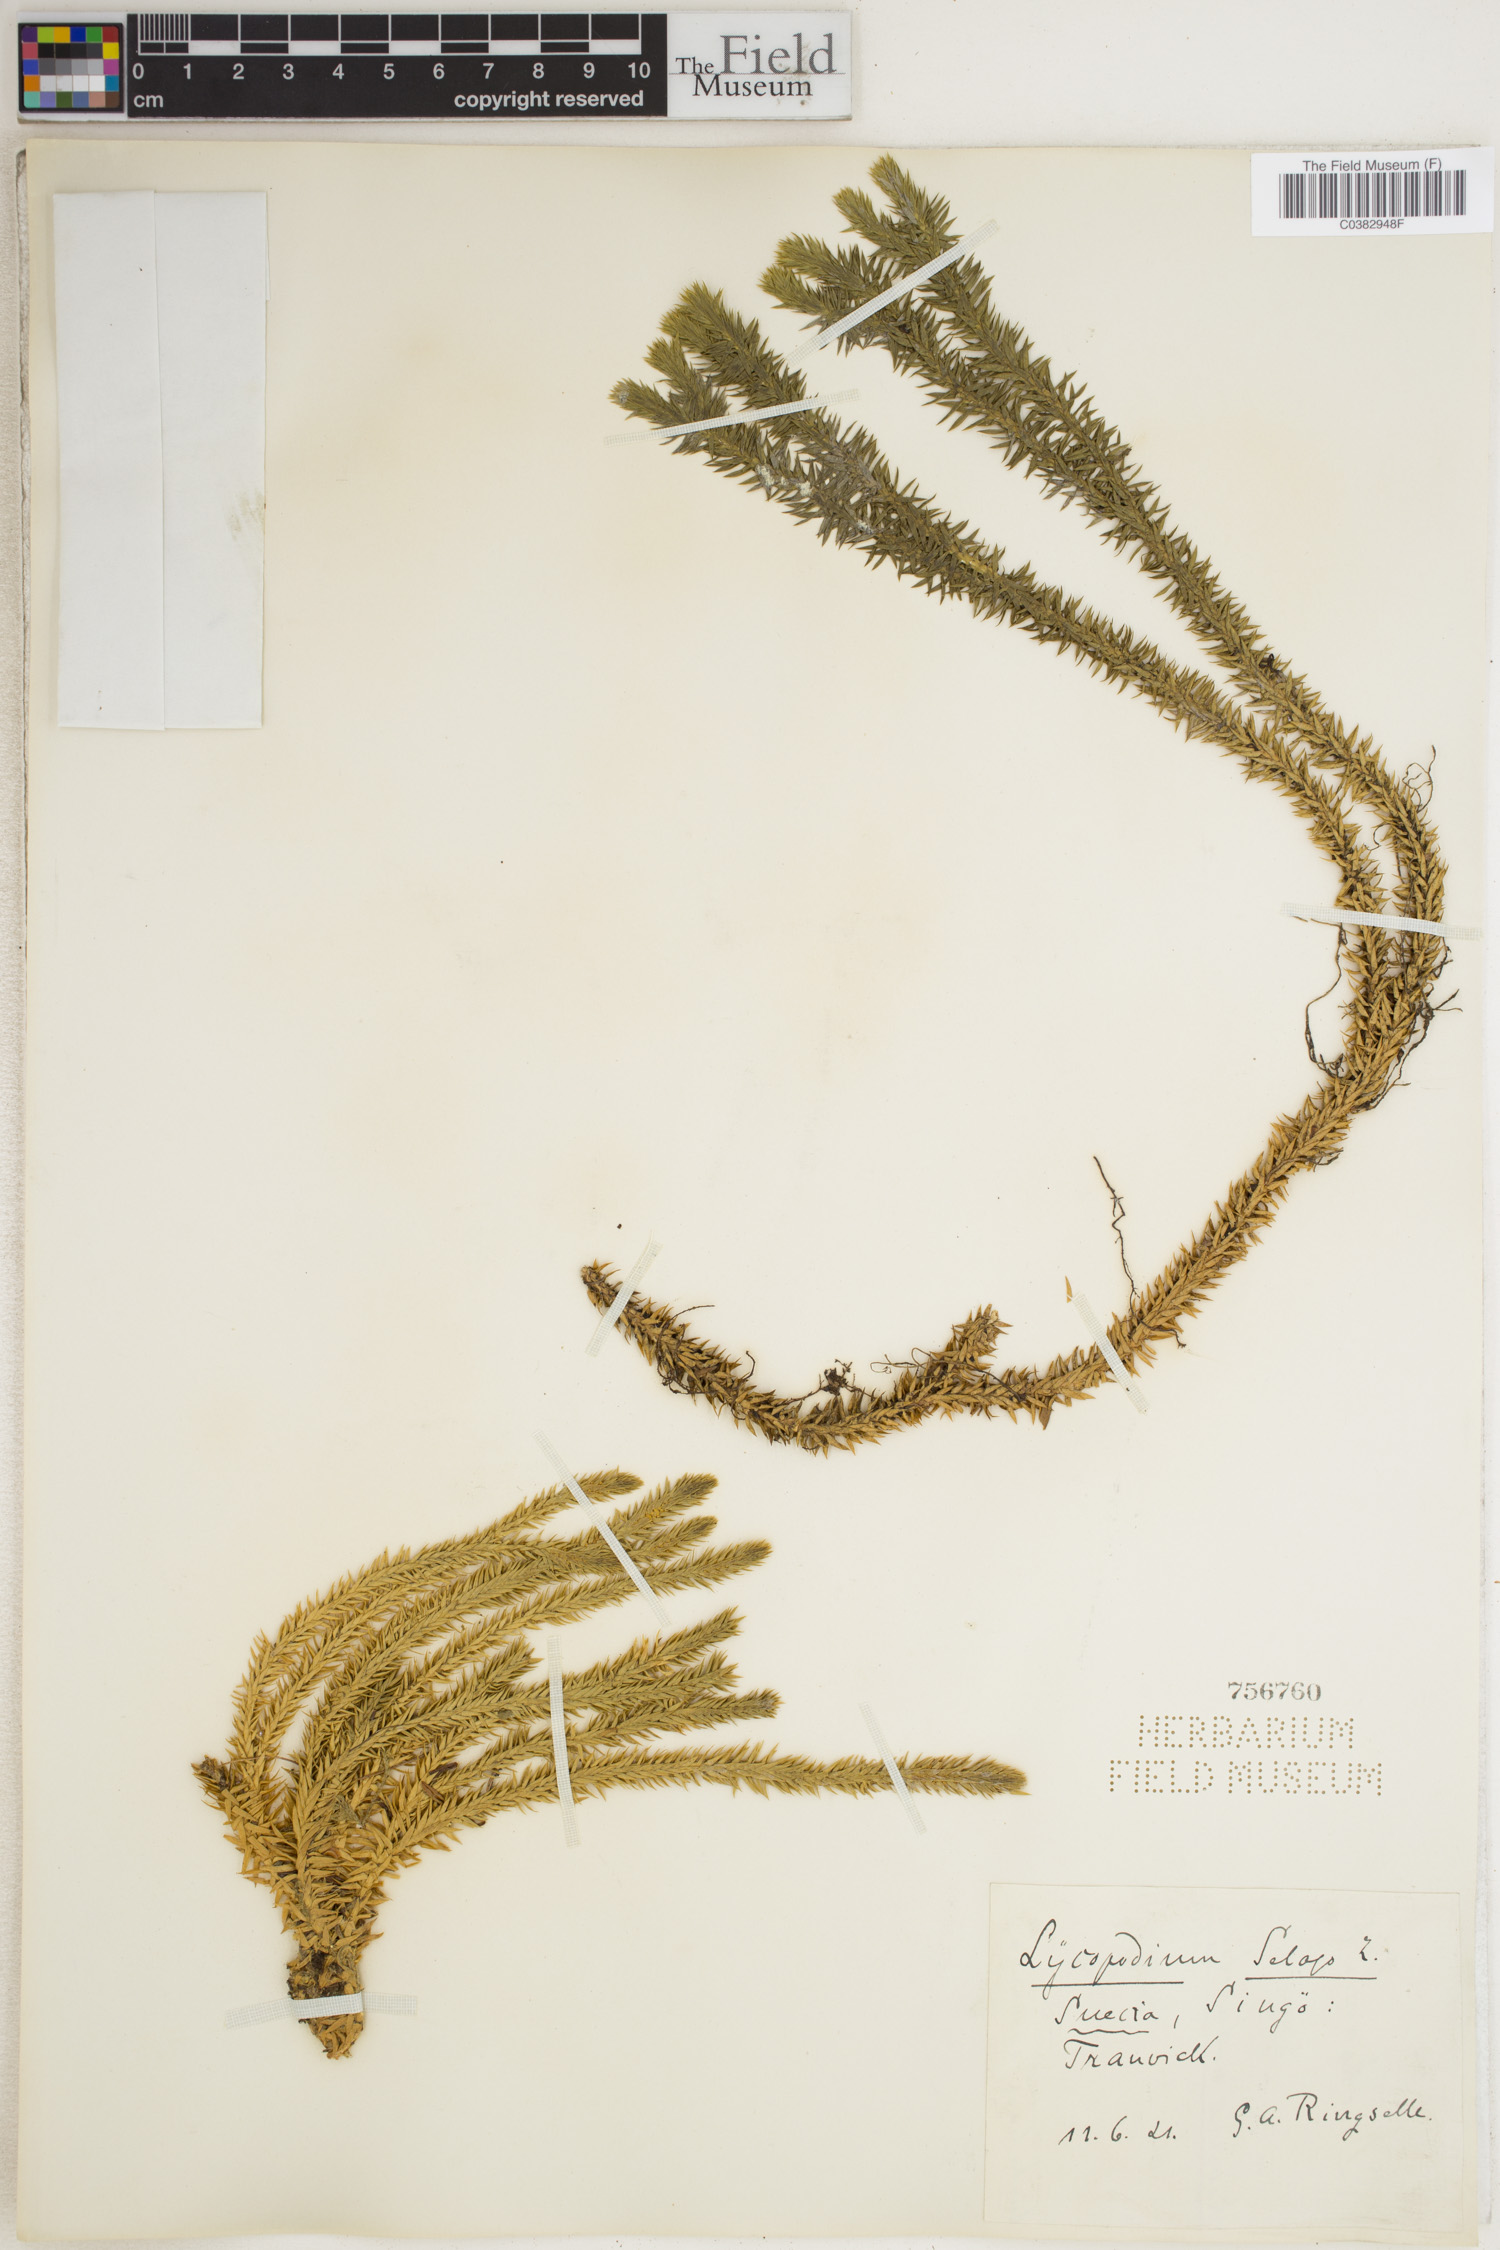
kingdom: Plantae
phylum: Tracheophyta
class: Lycopodiopsida
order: Lycopodiales
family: Lycopodiaceae
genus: Huperzia
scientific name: Huperzia selago
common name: Northern firmoss
